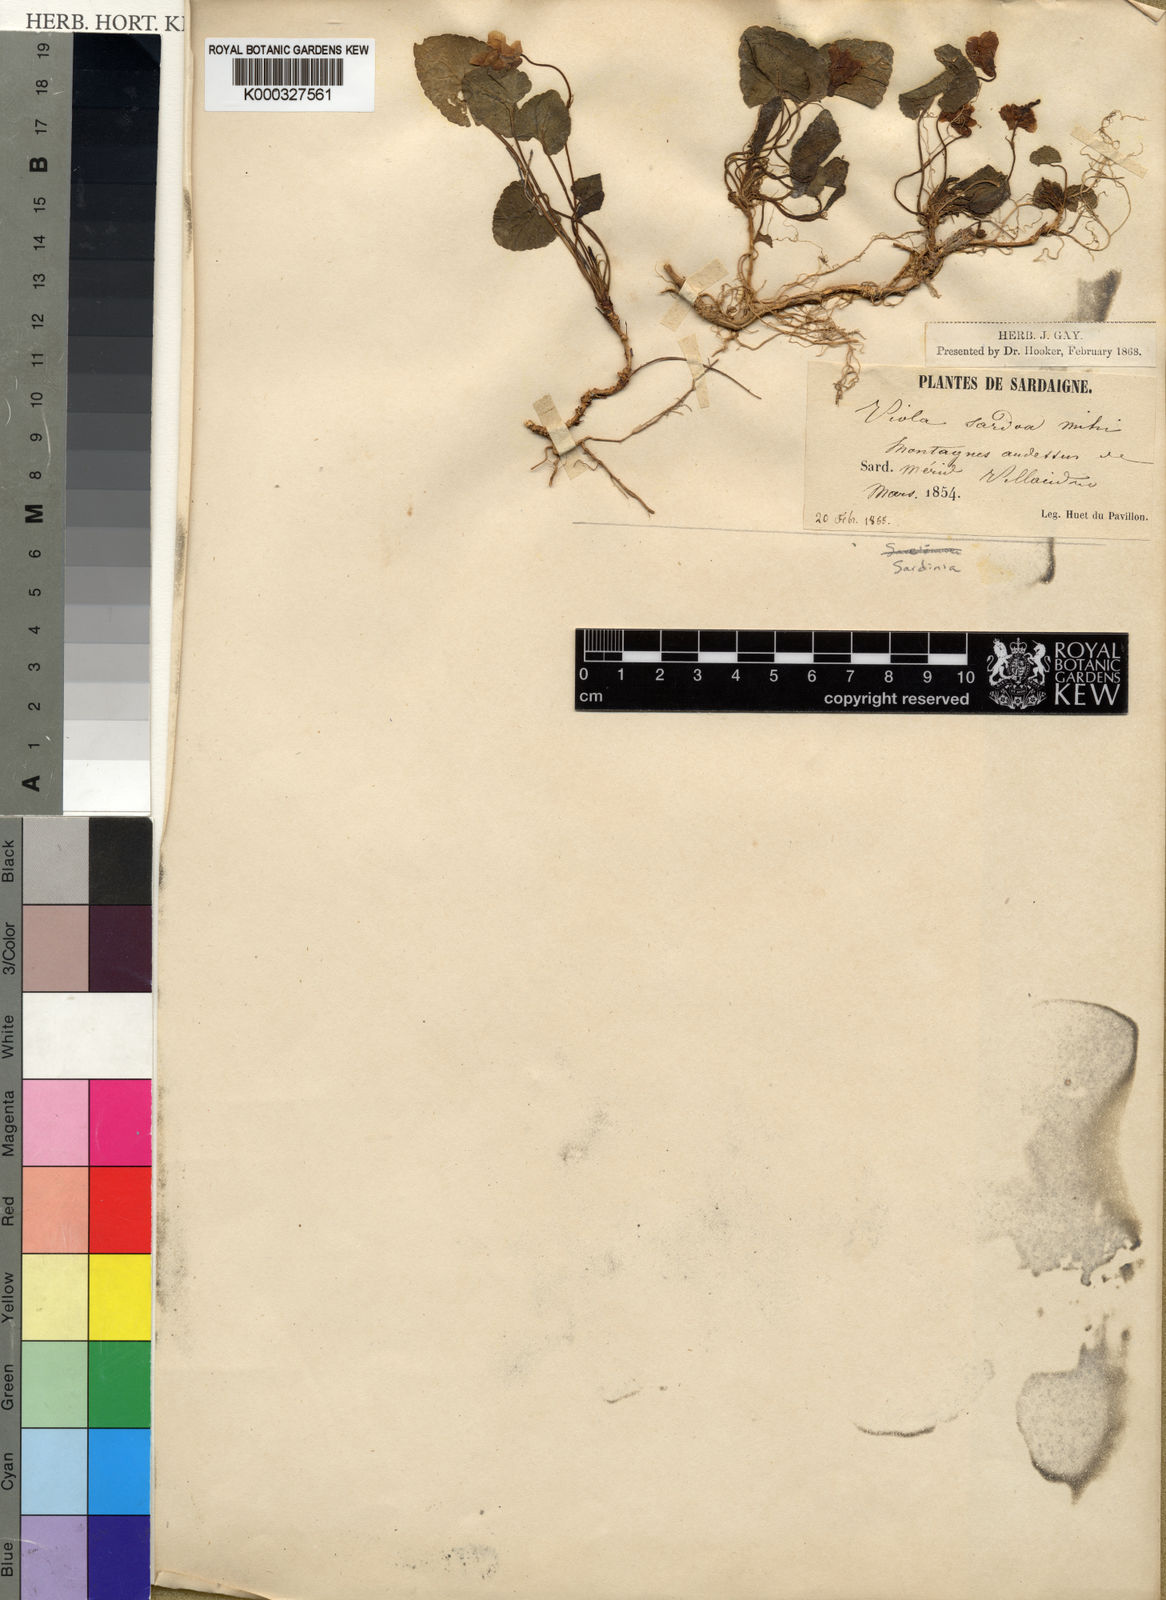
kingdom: Plantae
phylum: Tracheophyta
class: Magnoliopsida
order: Malpighiales
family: Violaceae
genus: Viola
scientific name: Viola
